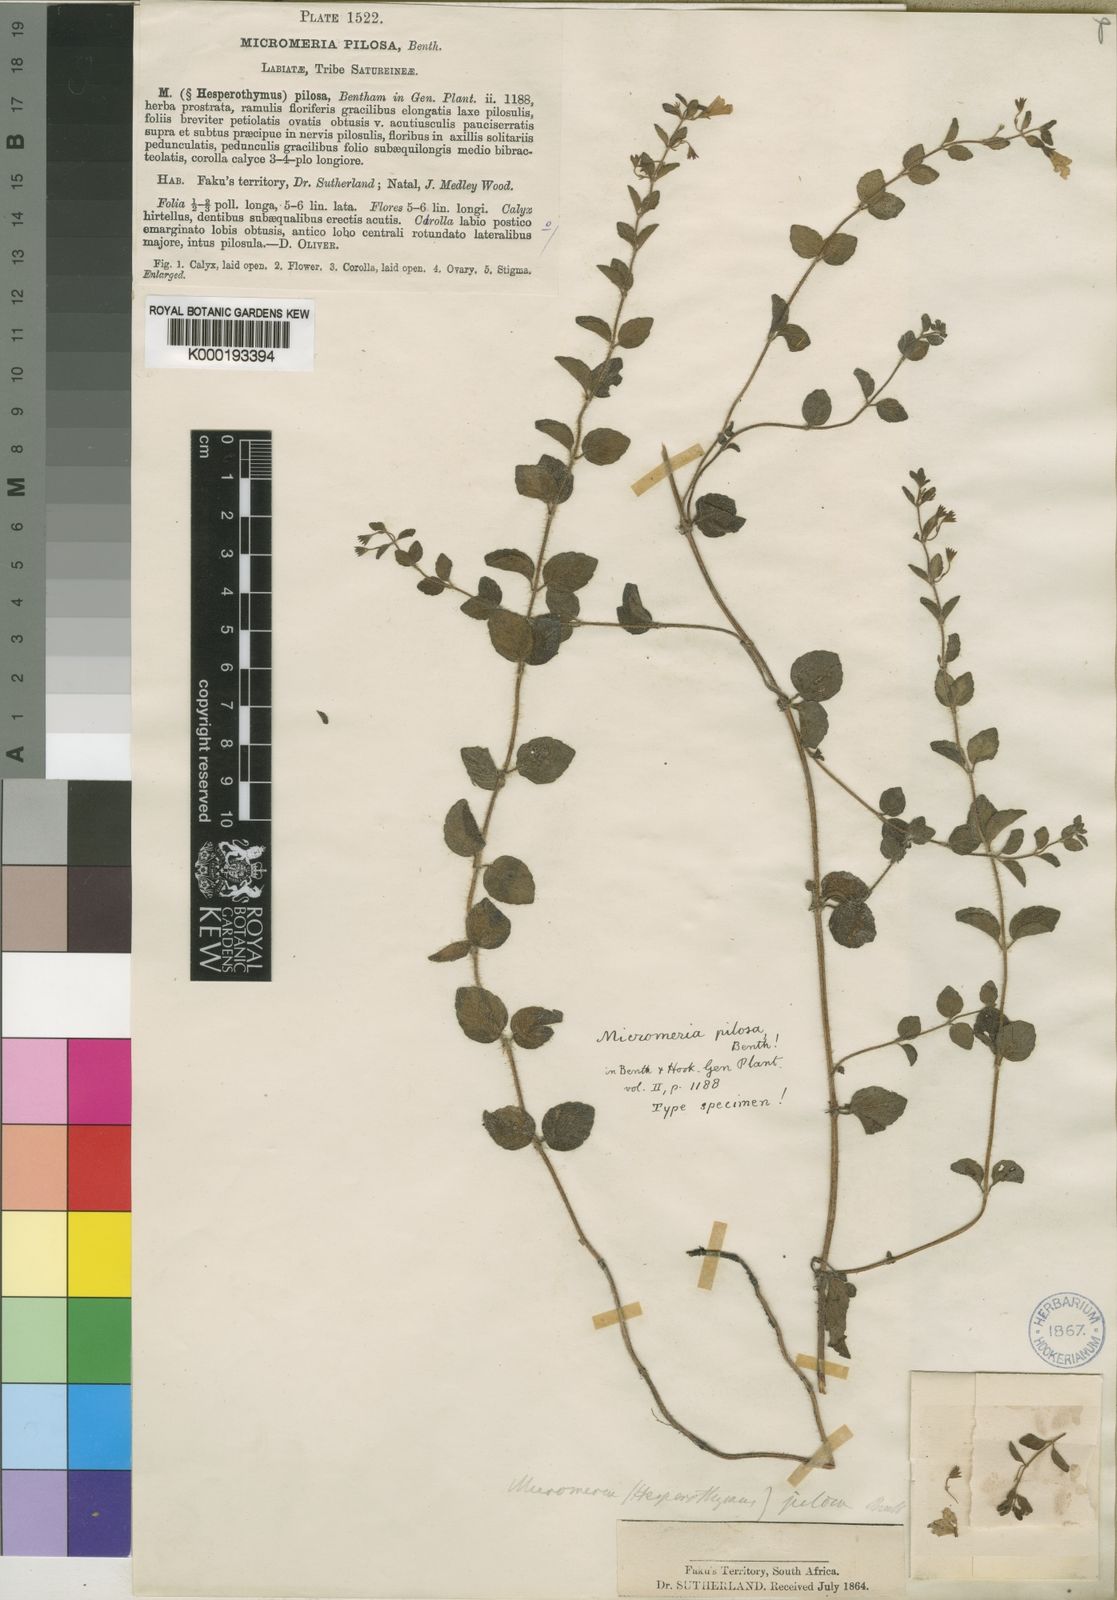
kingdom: Plantae
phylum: Tracheophyta
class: Magnoliopsida
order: Lamiales
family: Lamiaceae
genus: Killickia
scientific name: Killickia pilosa
